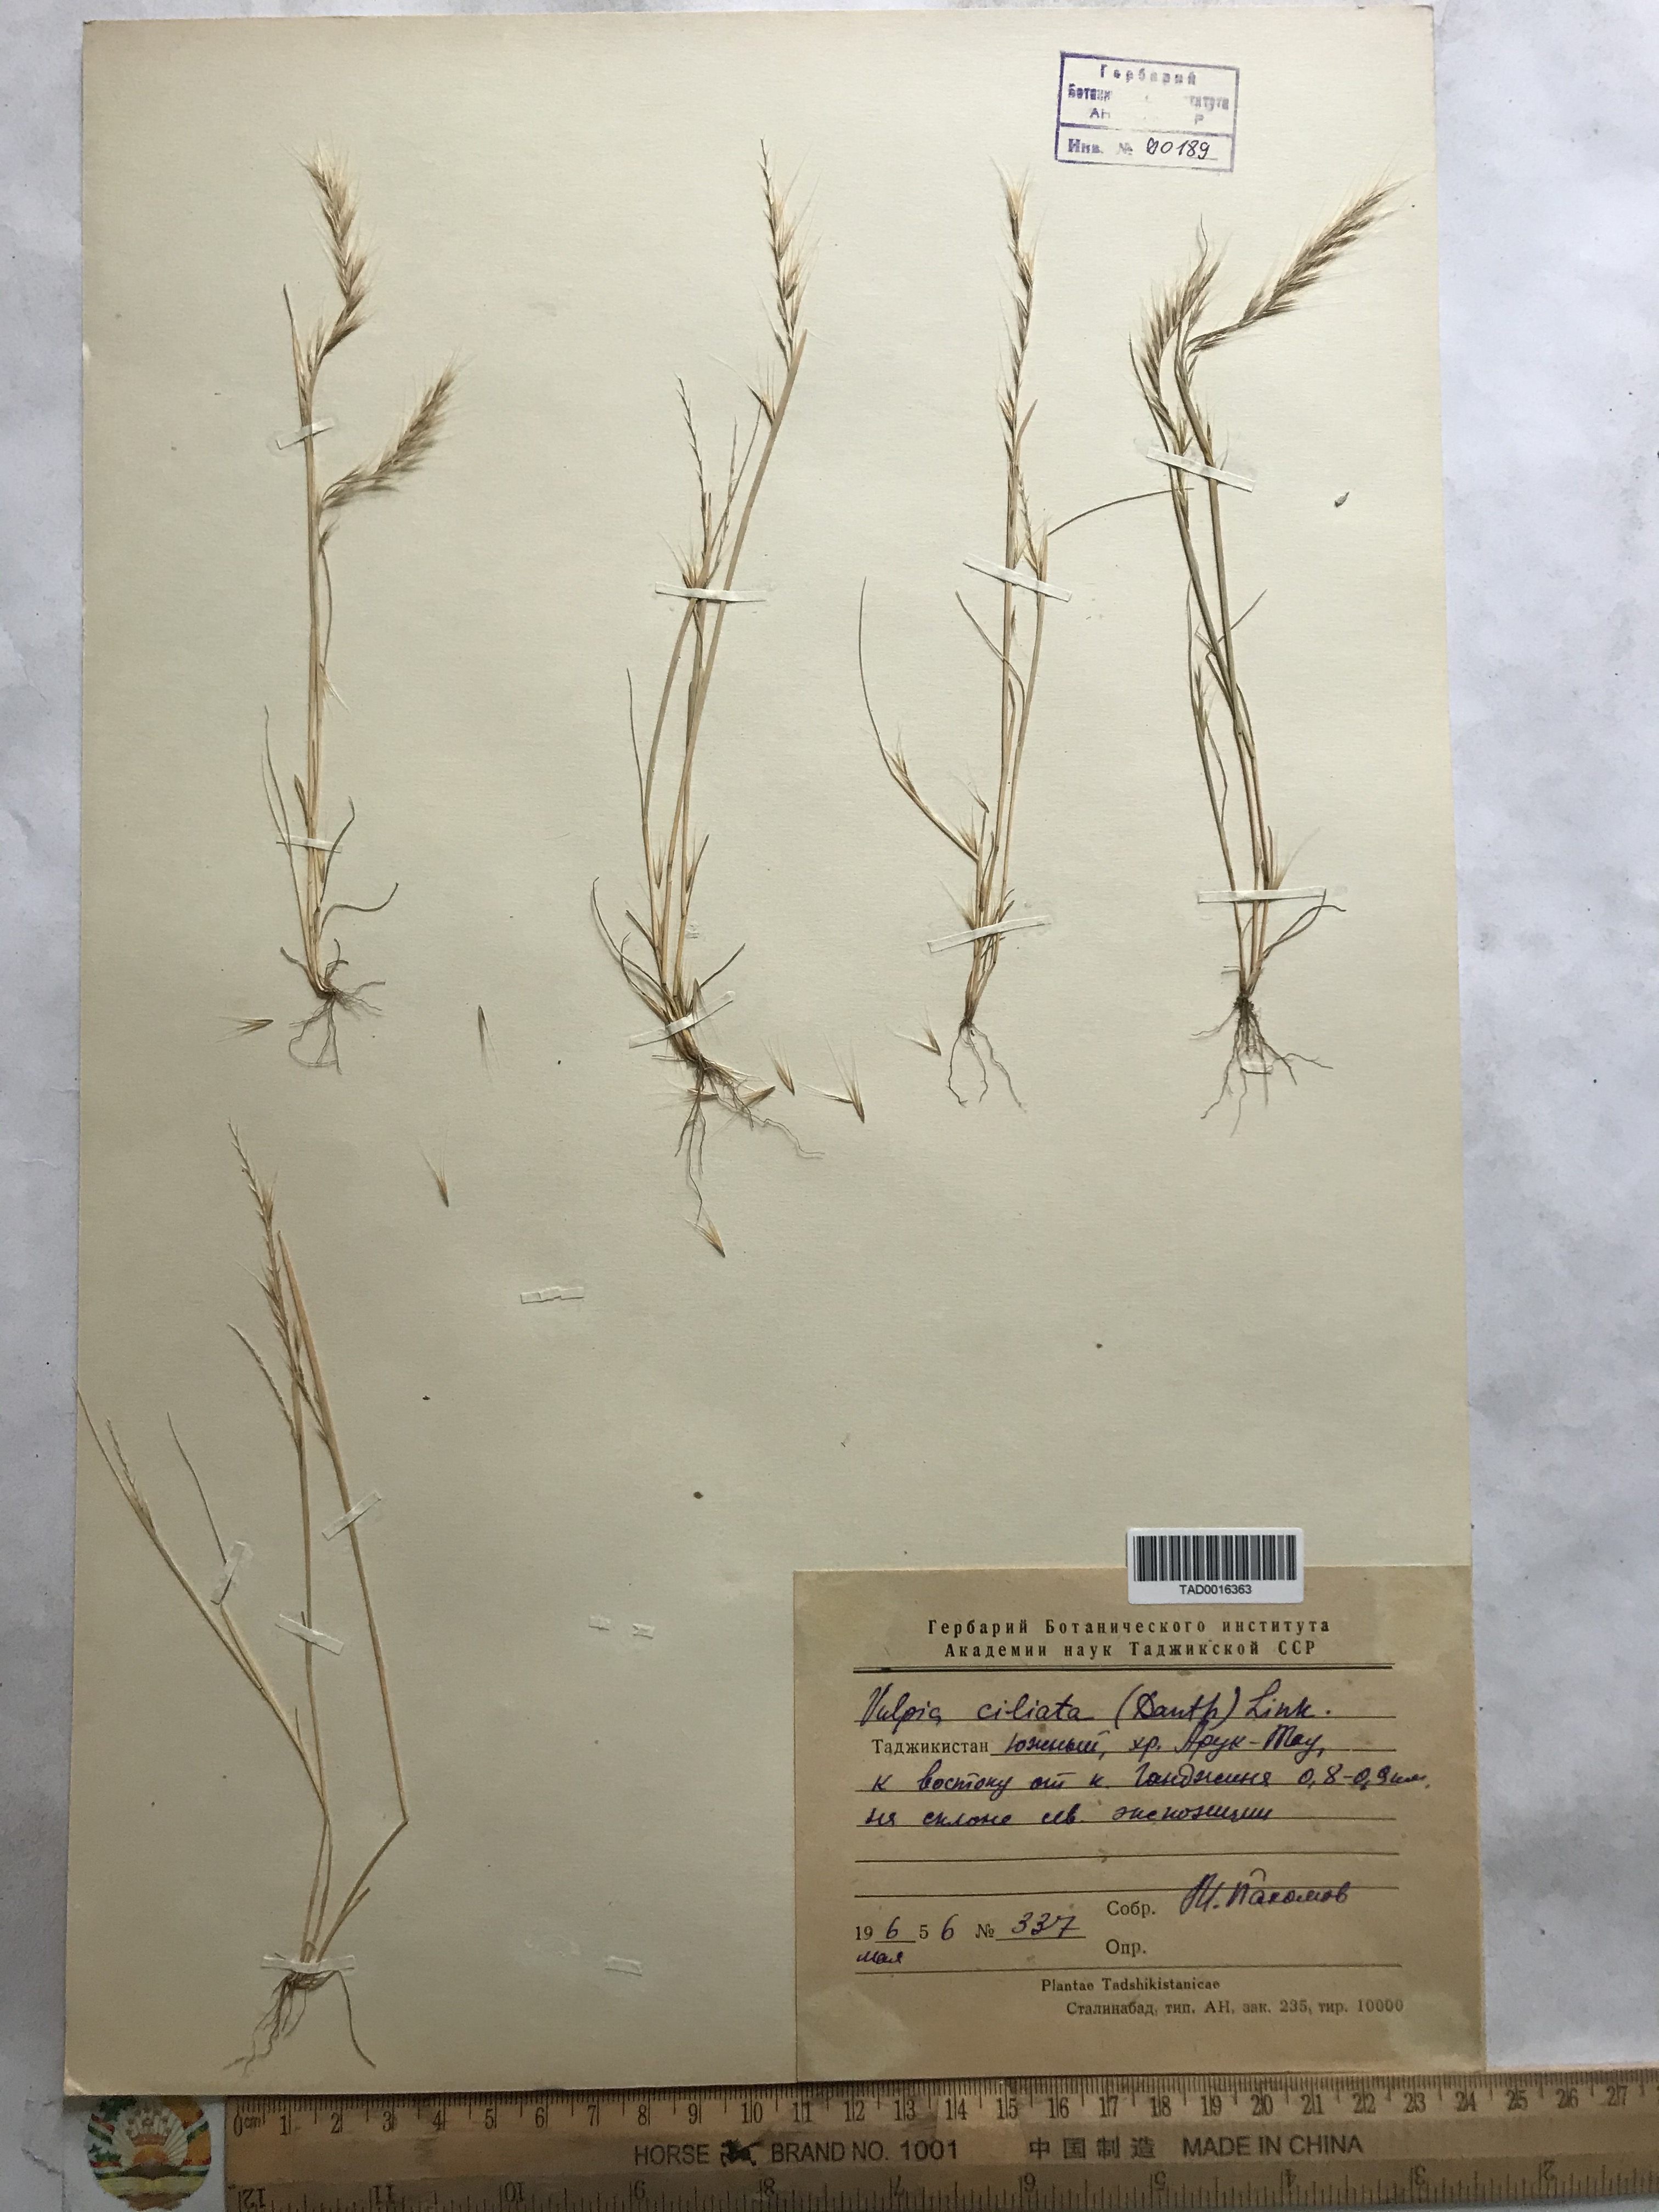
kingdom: Plantae
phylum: Tracheophyta
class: Liliopsida
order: Poales
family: Poaceae
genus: Festuca
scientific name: Festuca ambigua
